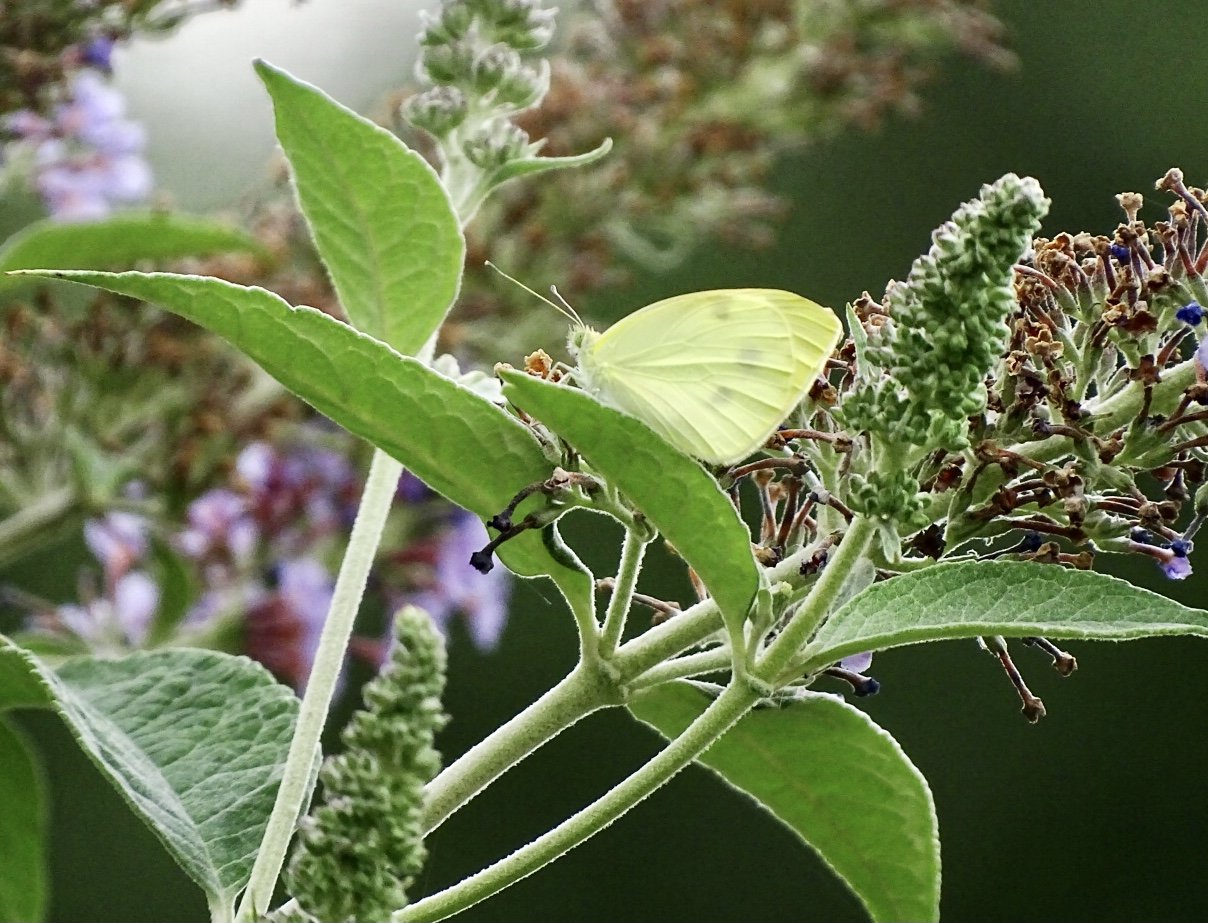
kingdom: Animalia
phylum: Arthropoda
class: Insecta
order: Lepidoptera
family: Pieridae
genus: Pieris
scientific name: Pieris rapae
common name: Cabbage White
